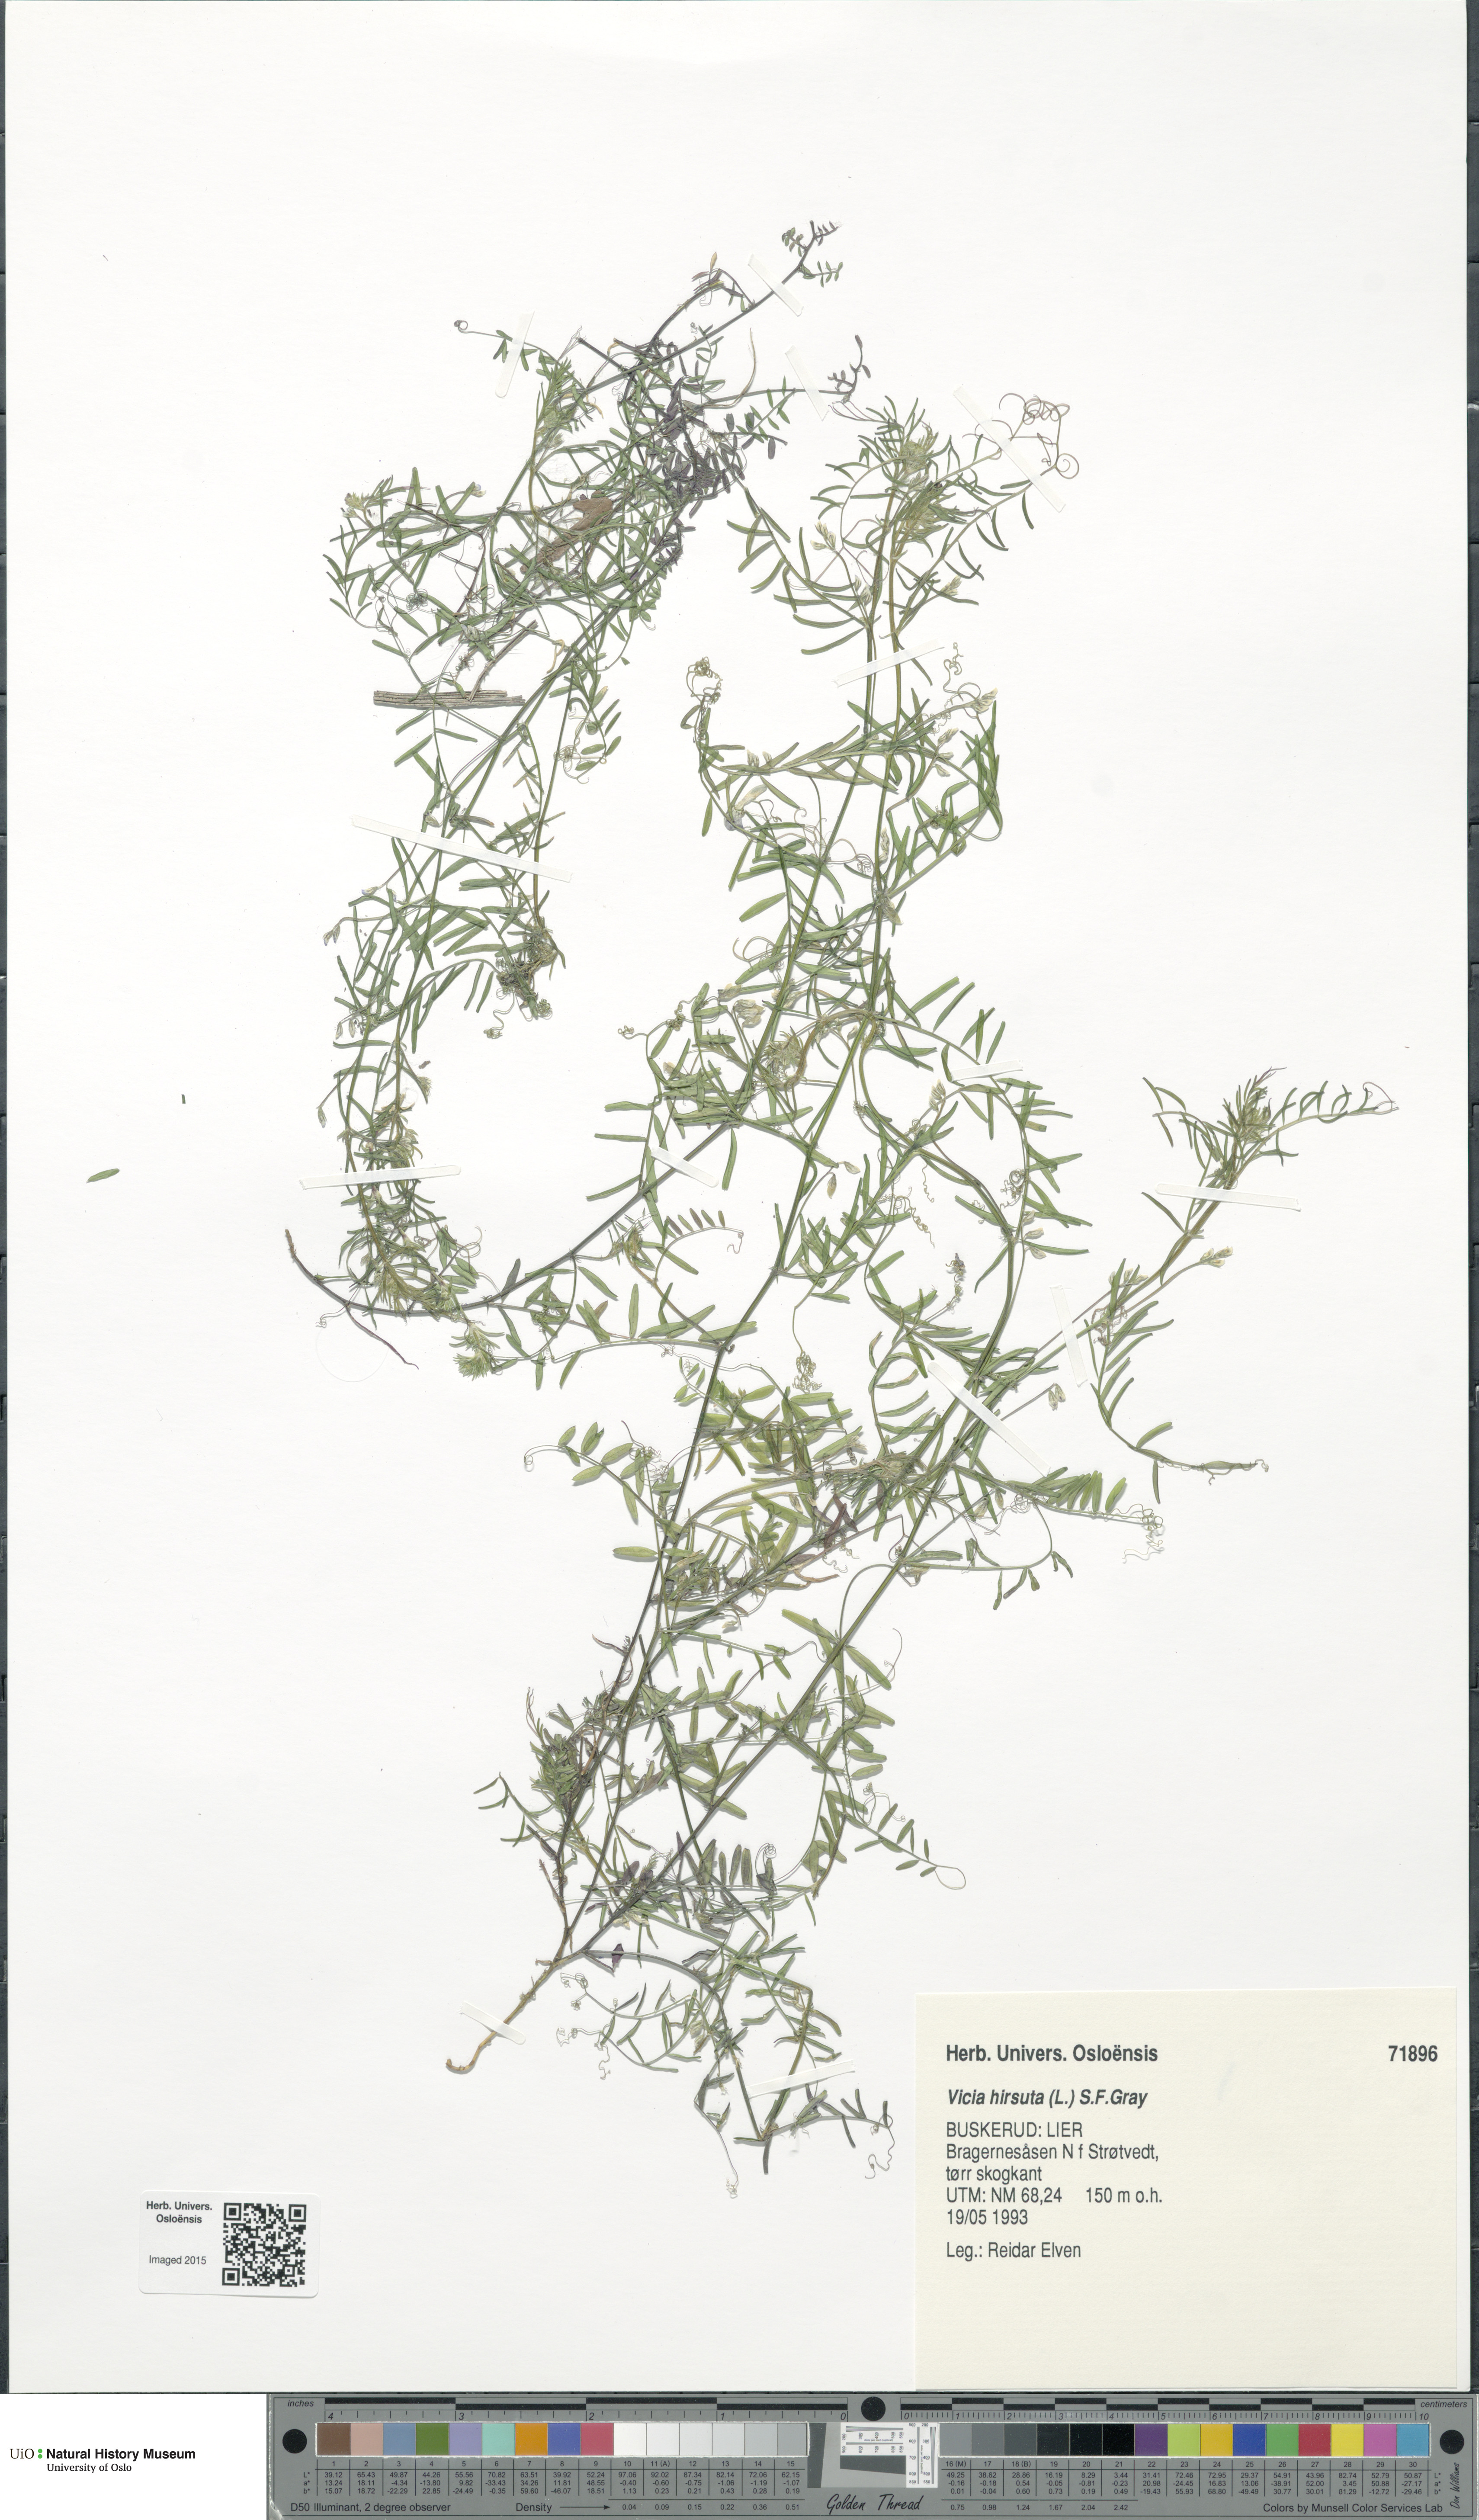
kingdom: Plantae
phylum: Tracheophyta
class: Magnoliopsida
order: Fabales
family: Fabaceae
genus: Vicia
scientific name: Vicia hirsuta
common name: Tiny vetch
